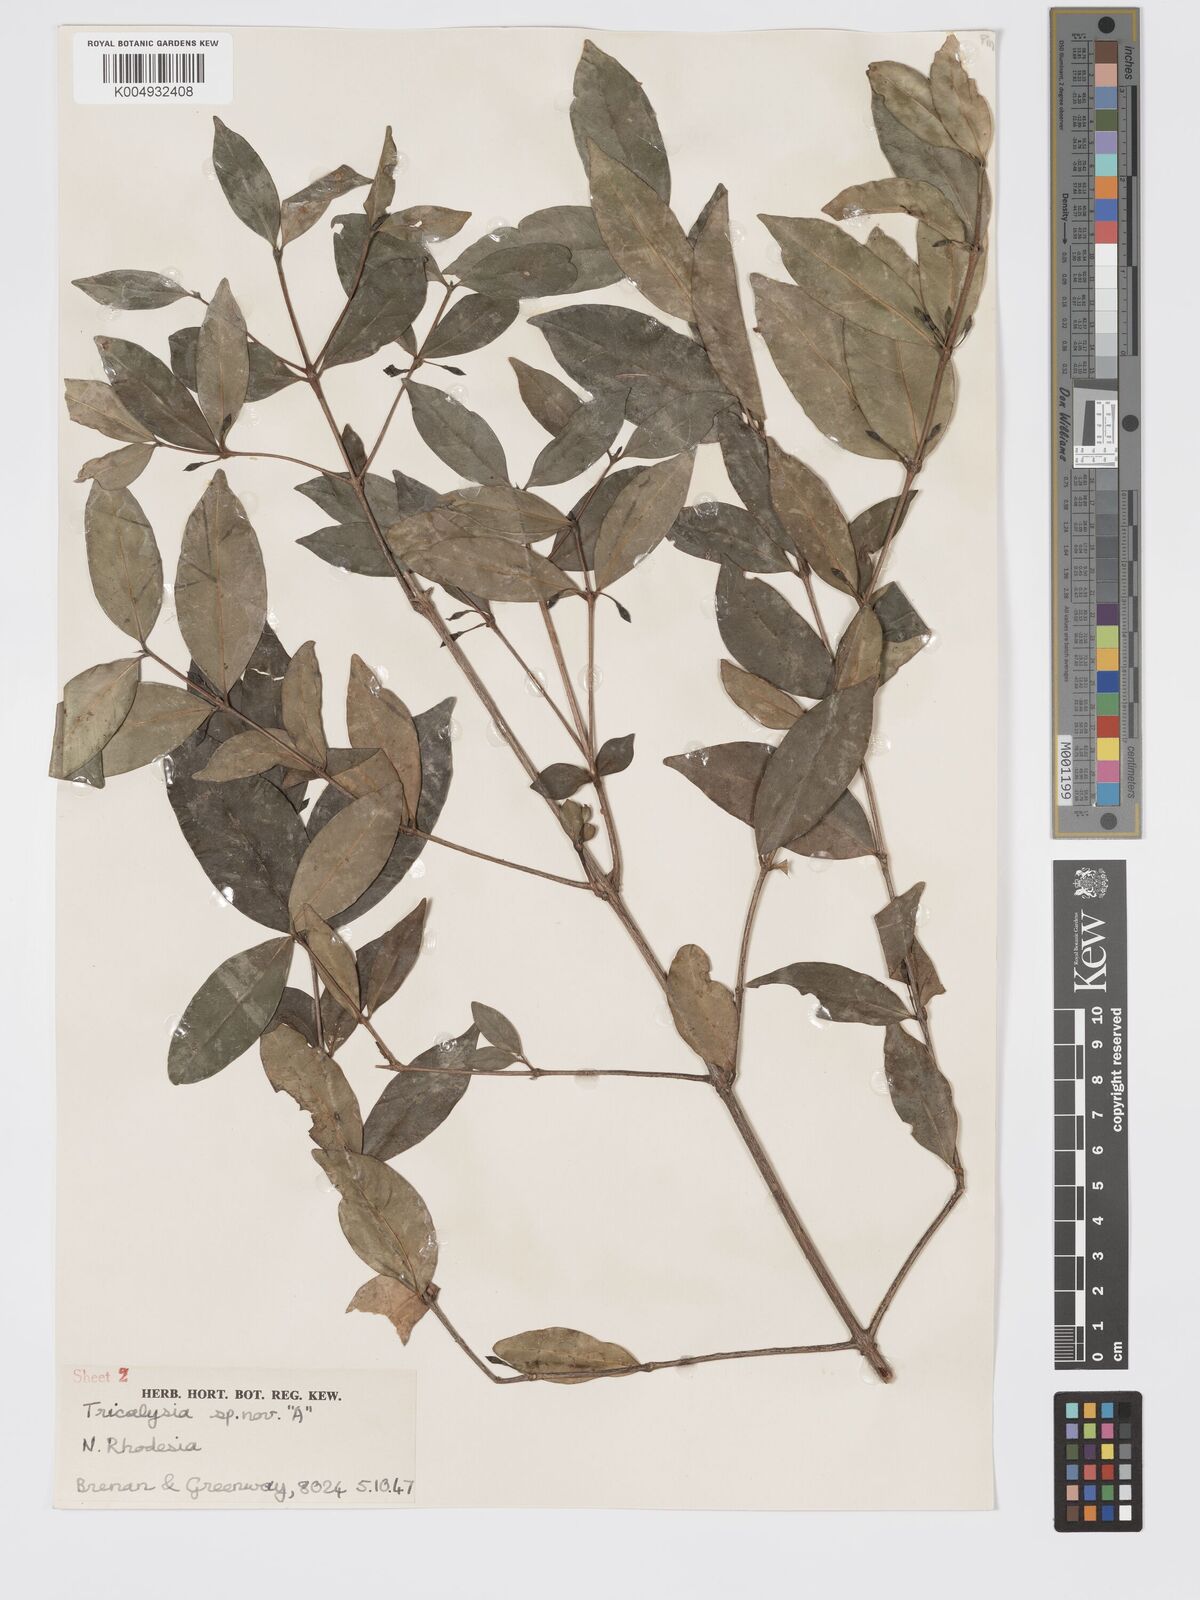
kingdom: Plantae
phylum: Tracheophyta
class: Magnoliopsida
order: Gentianales
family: Rubiaceae
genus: Tricalysia
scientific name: Tricalysia
